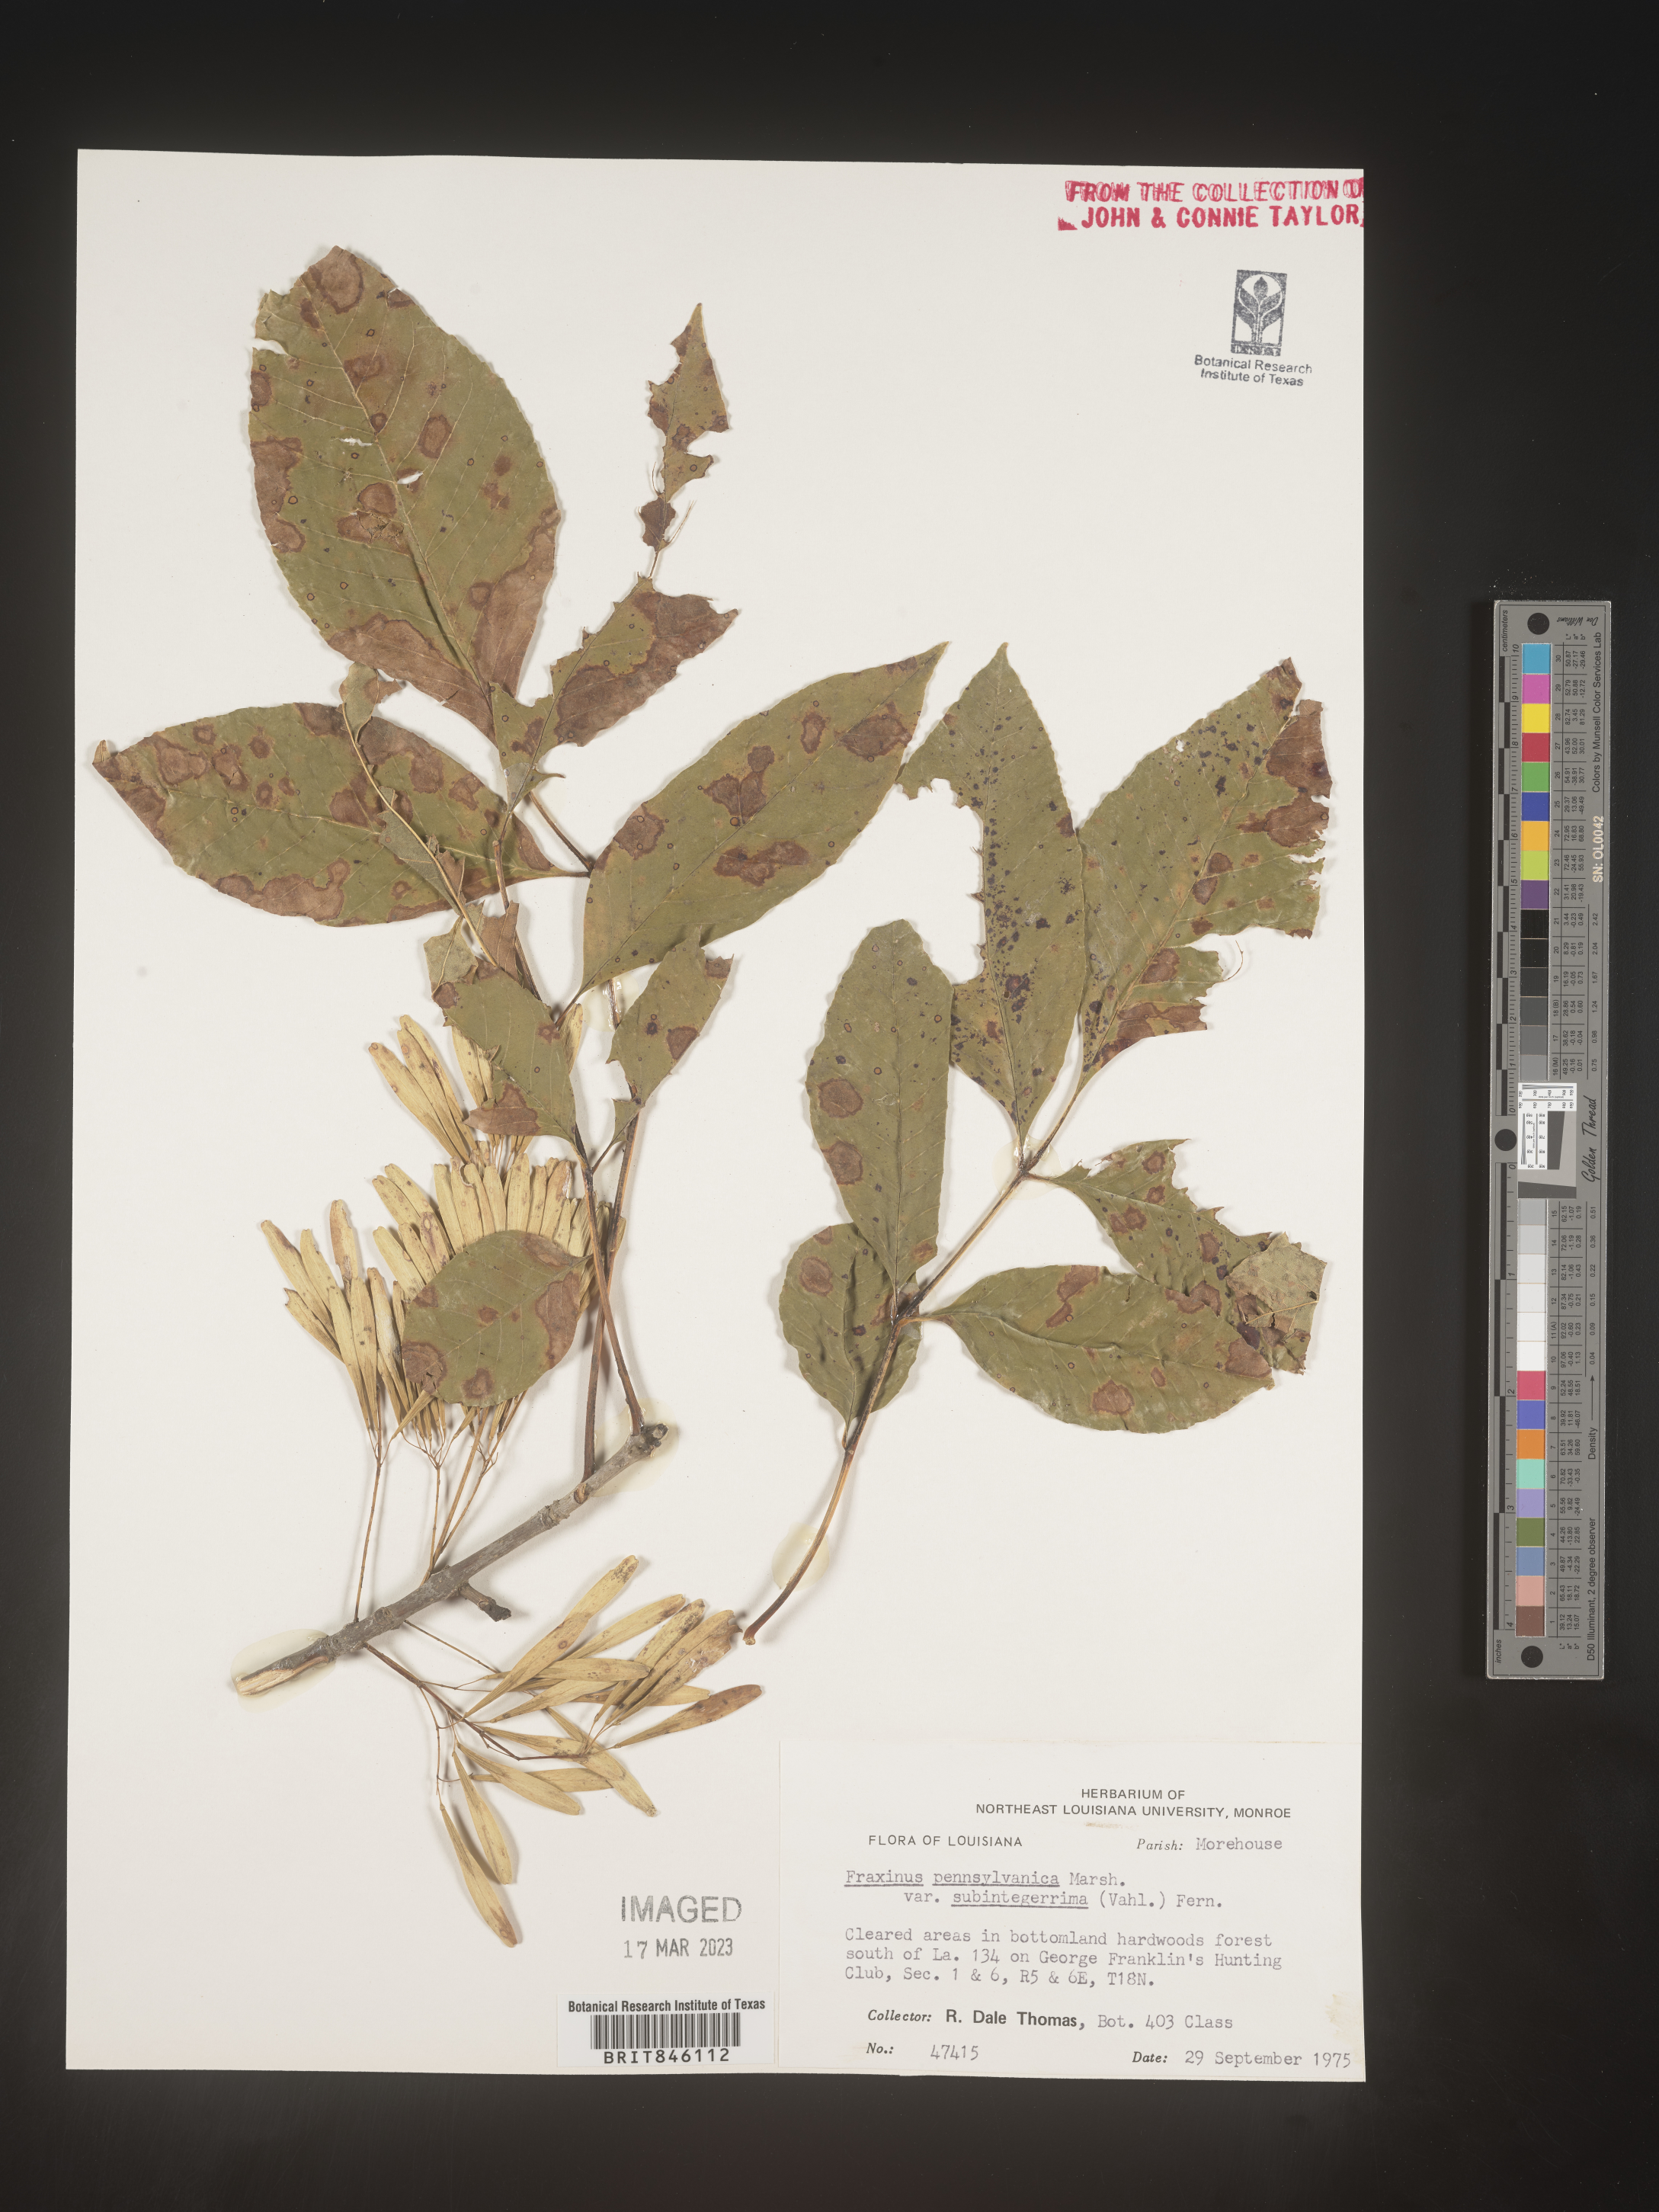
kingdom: Plantae
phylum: Tracheophyta
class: Magnoliopsida
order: Lamiales
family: Oleaceae
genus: Fraxinus
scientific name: Fraxinus pennsylvanica
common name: Green ash
